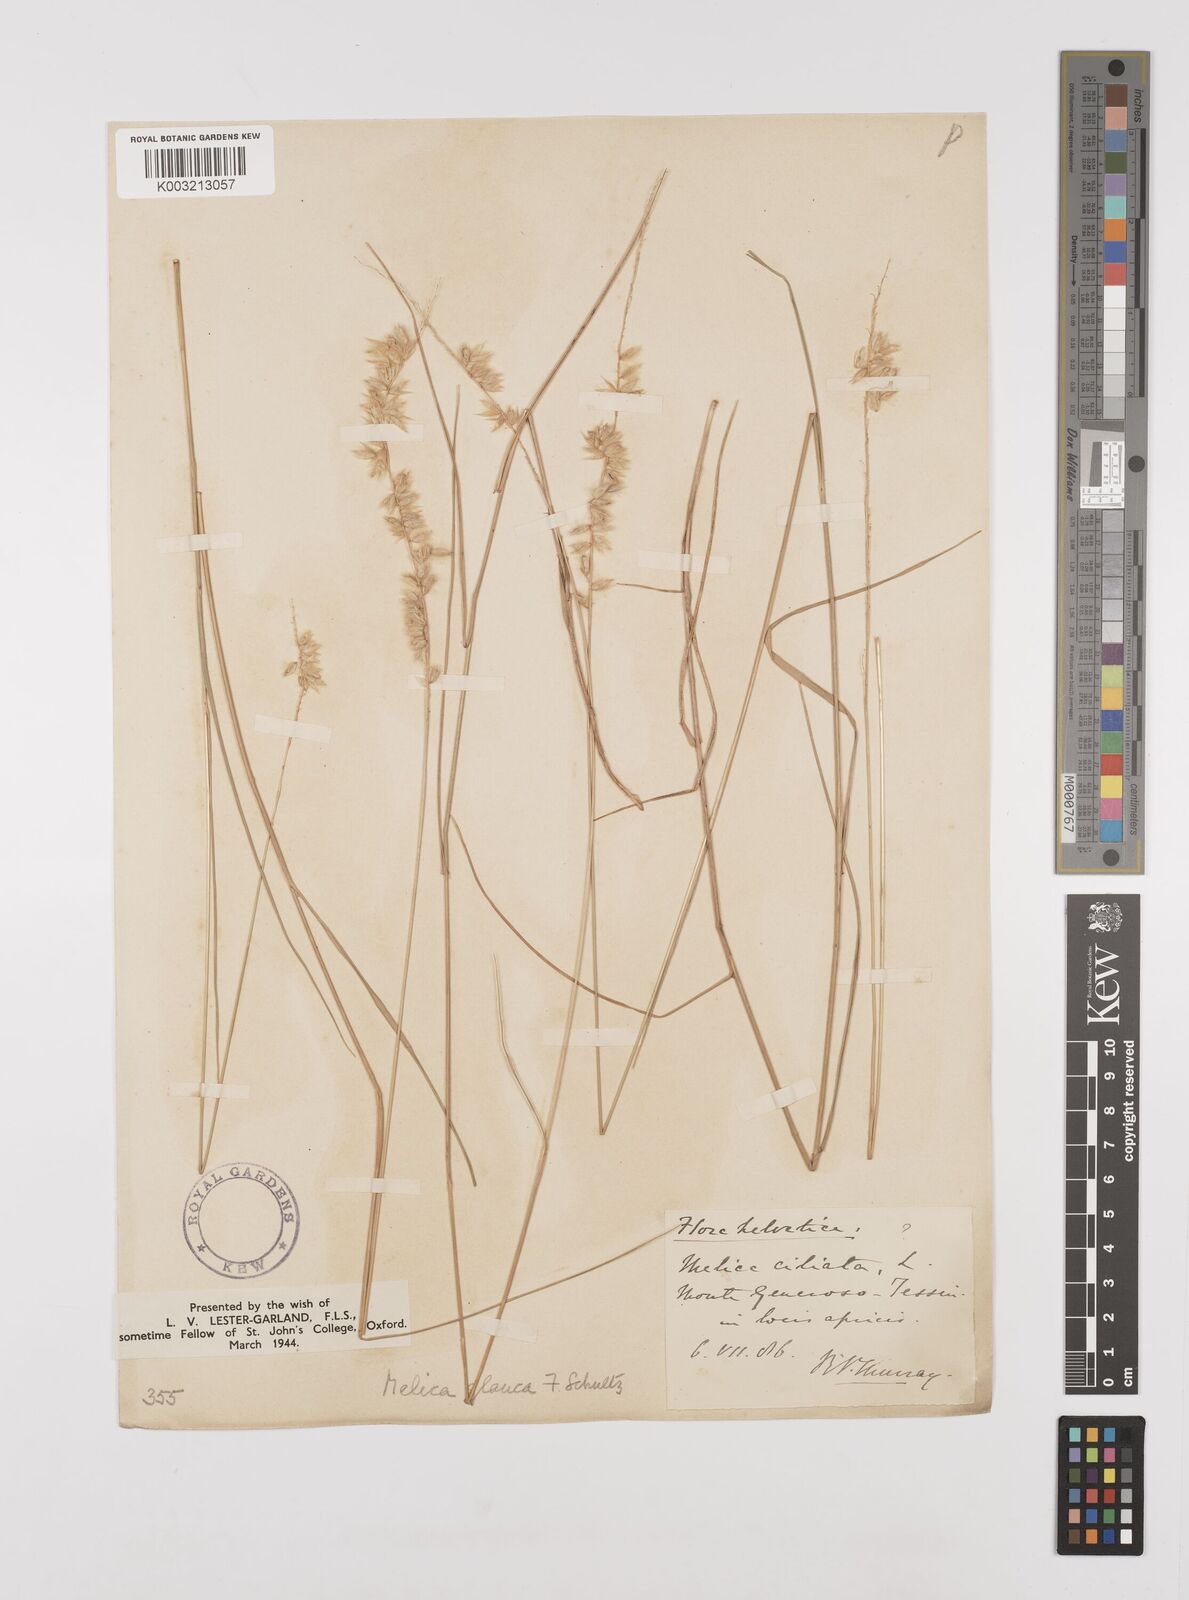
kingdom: Plantae
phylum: Tracheophyta
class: Liliopsida
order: Poales
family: Poaceae
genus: Melica
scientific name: Melica ciliata
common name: Hairy melicgrass
